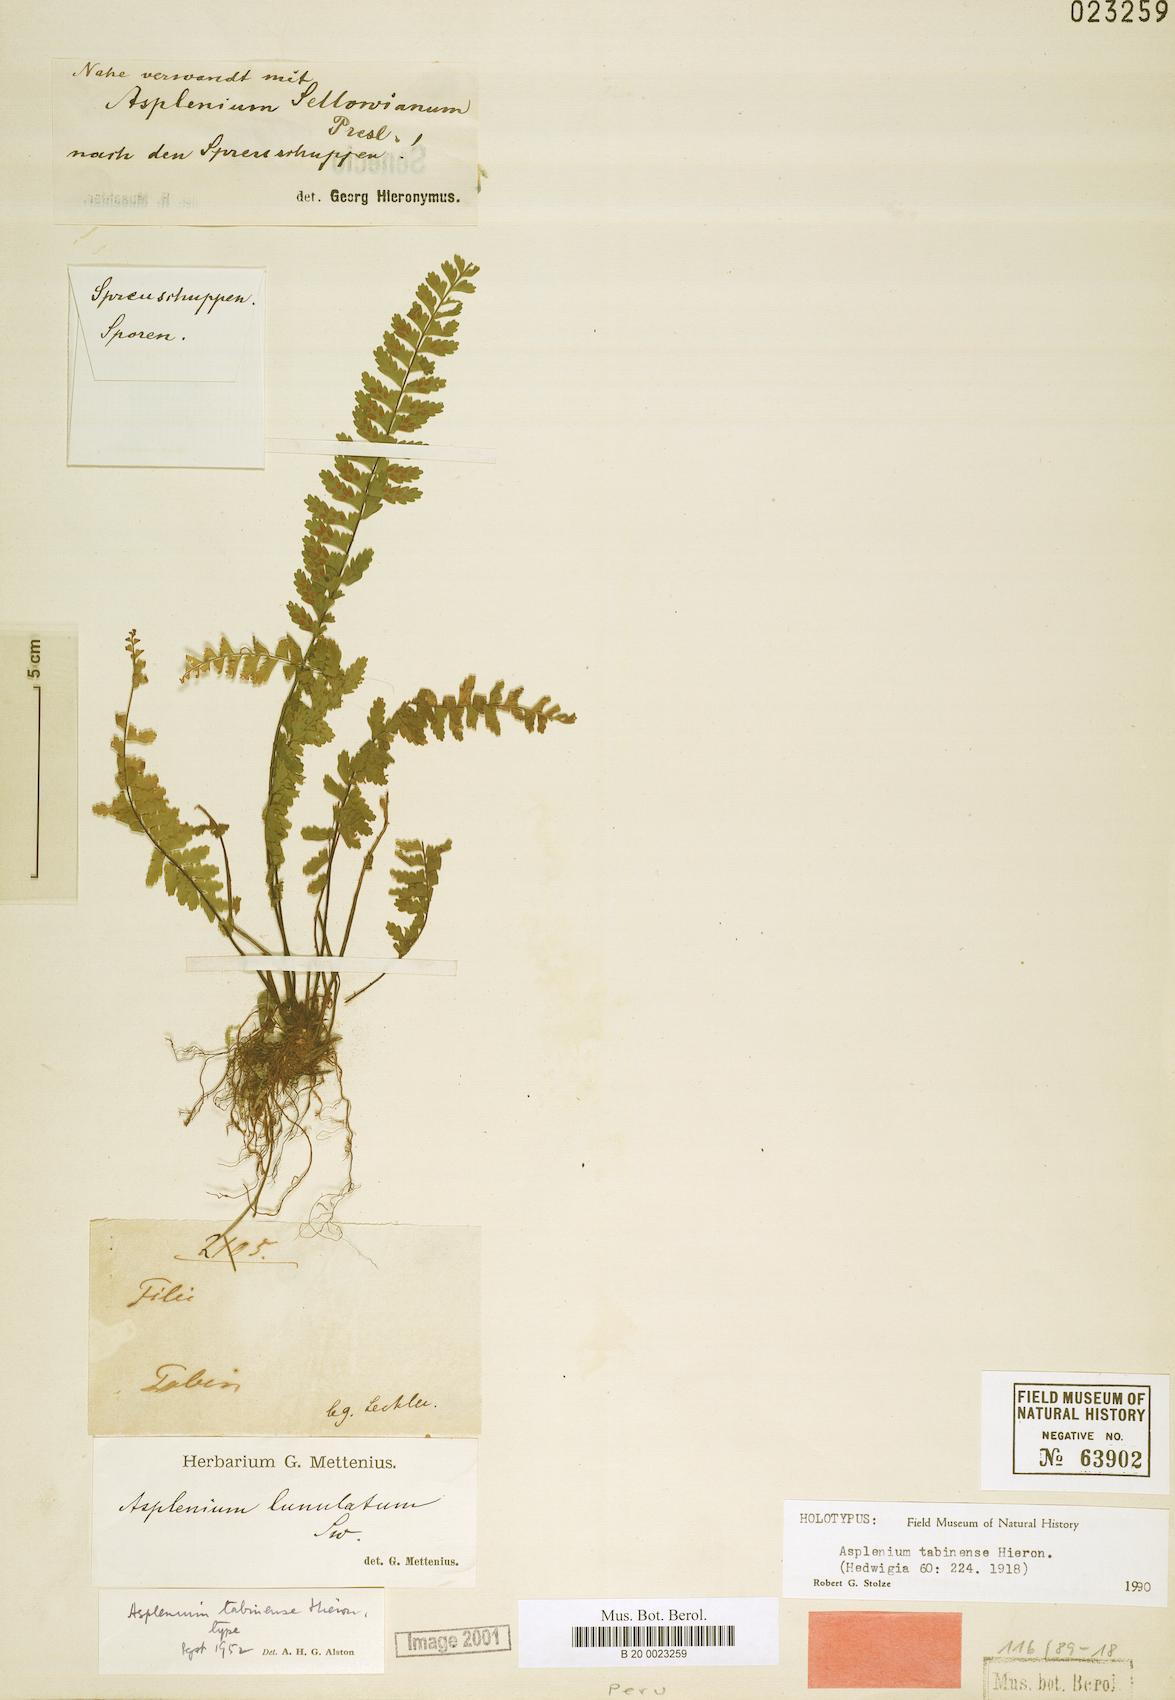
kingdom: Plantae
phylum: Tracheophyta
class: Polypodiopsida
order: Polypodiales
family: Aspleniaceae
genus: Asplenium
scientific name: Asplenium tabinense
